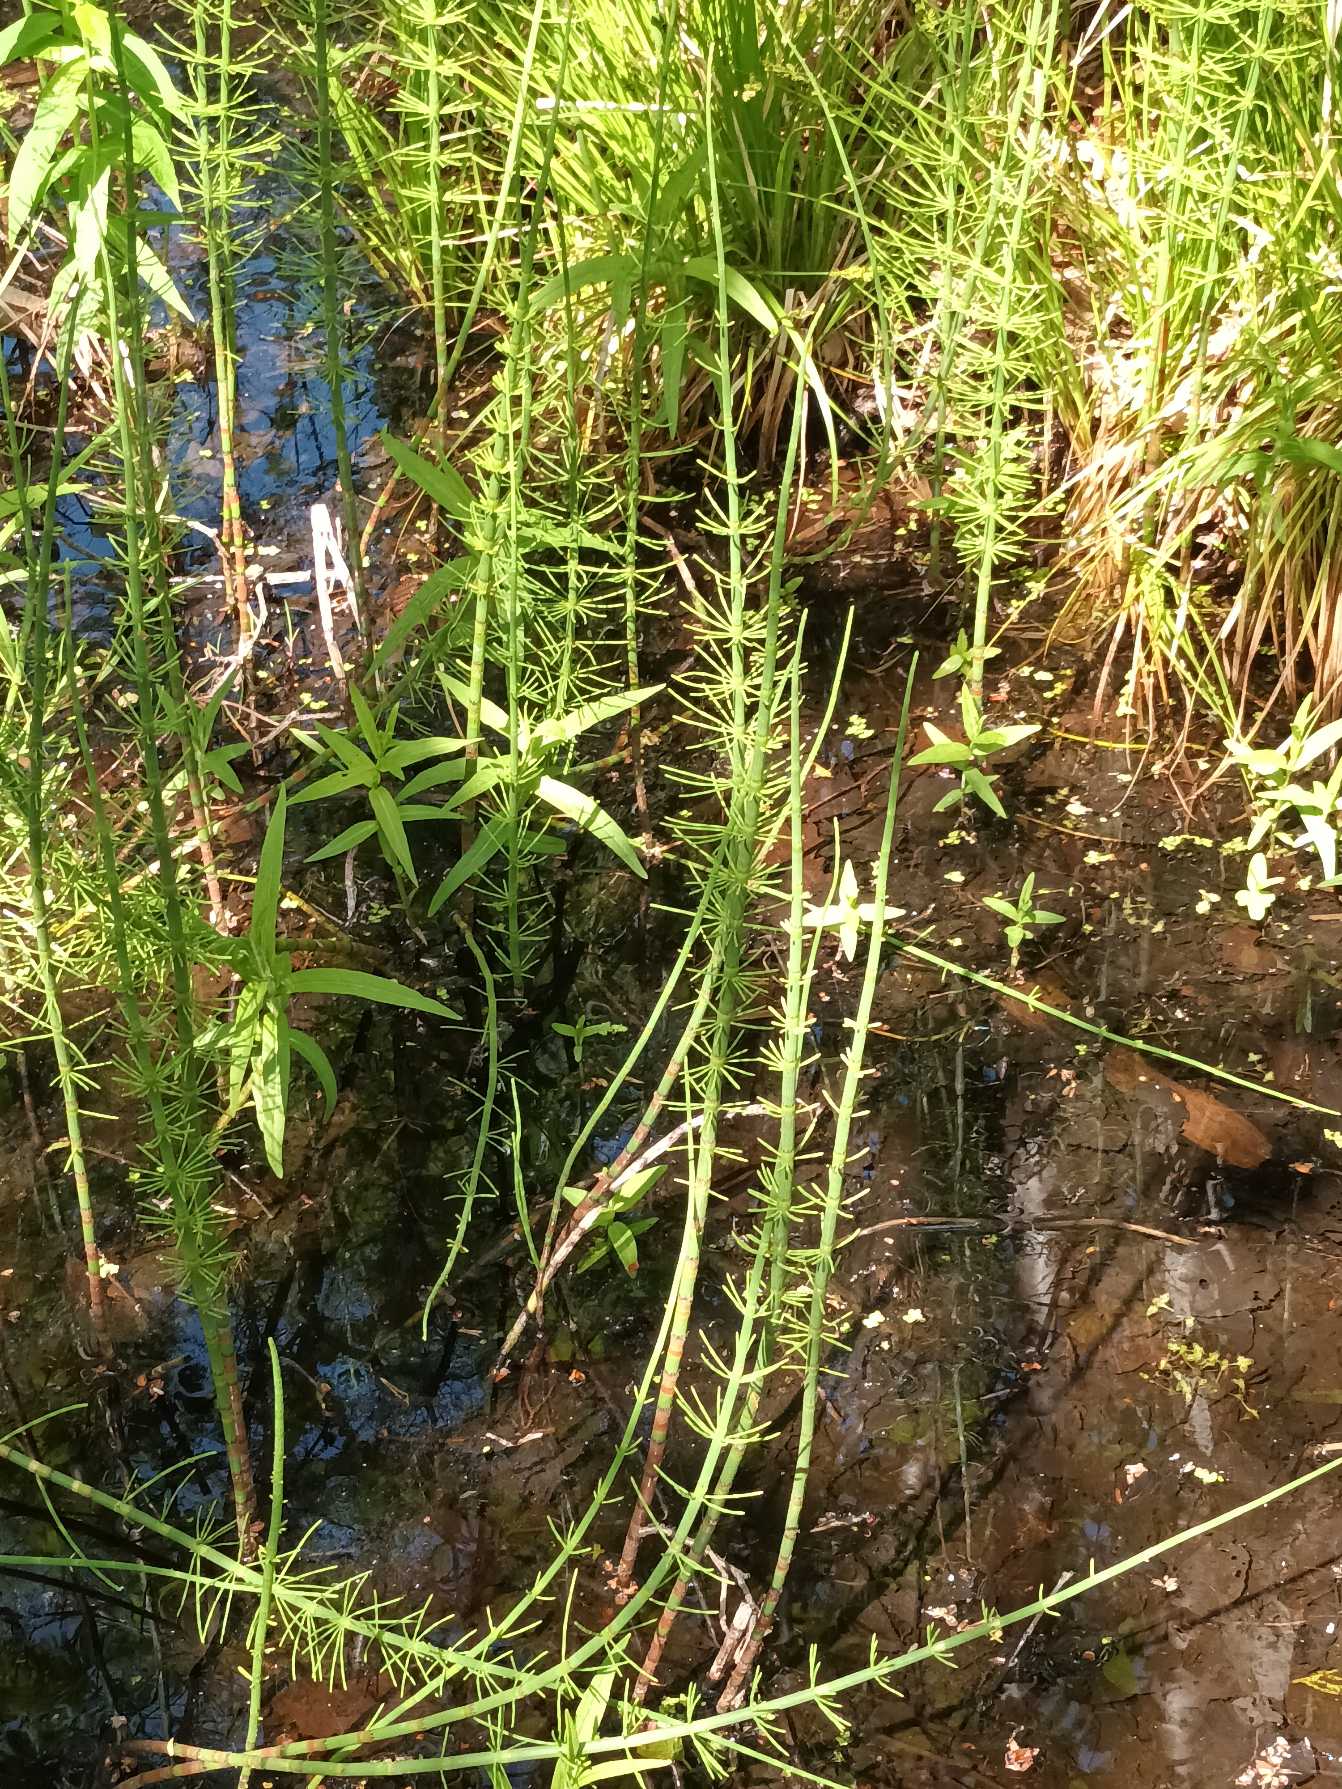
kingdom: Plantae
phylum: Tracheophyta
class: Polypodiopsida
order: Equisetales
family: Equisetaceae
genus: Equisetum
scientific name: Equisetum fluviatile
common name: Dynd-padderok
